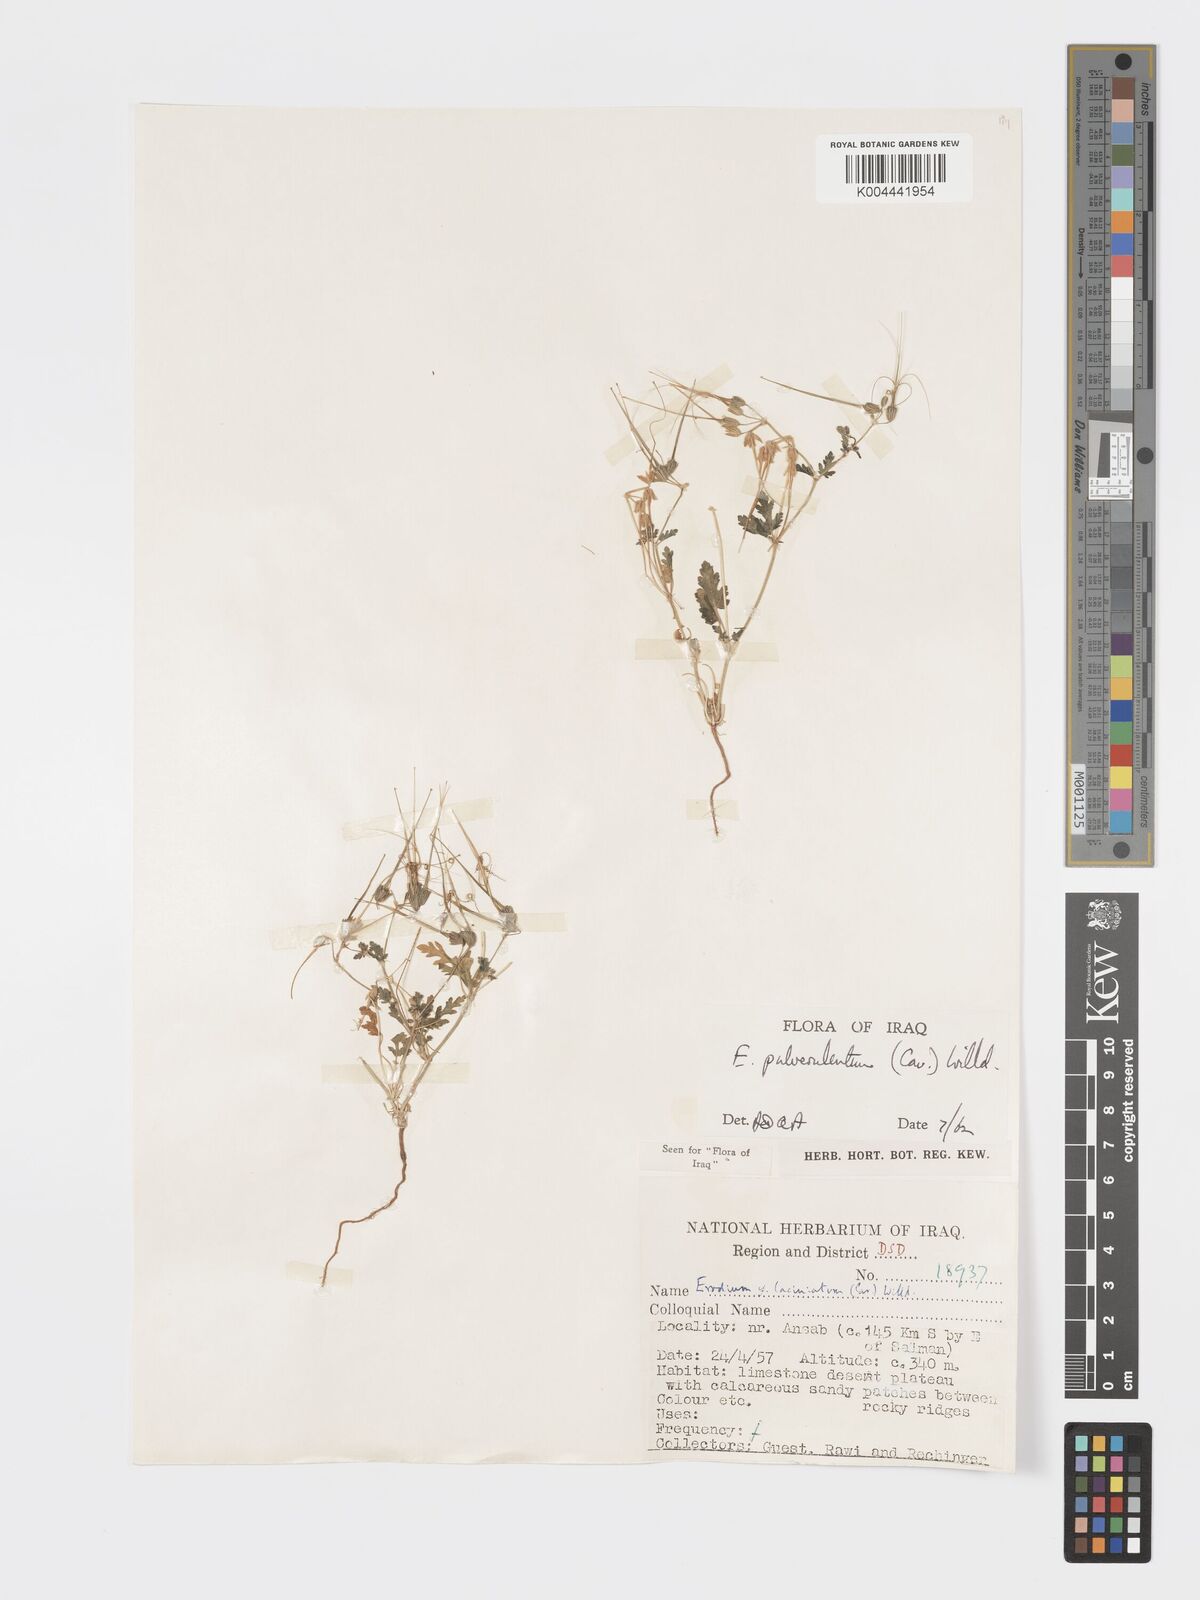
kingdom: Plantae
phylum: Tracheophyta
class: Magnoliopsida
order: Geraniales
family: Geraniaceae
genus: Erodium
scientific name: Erodium laciniatum
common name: Cutleaf stork's bill
